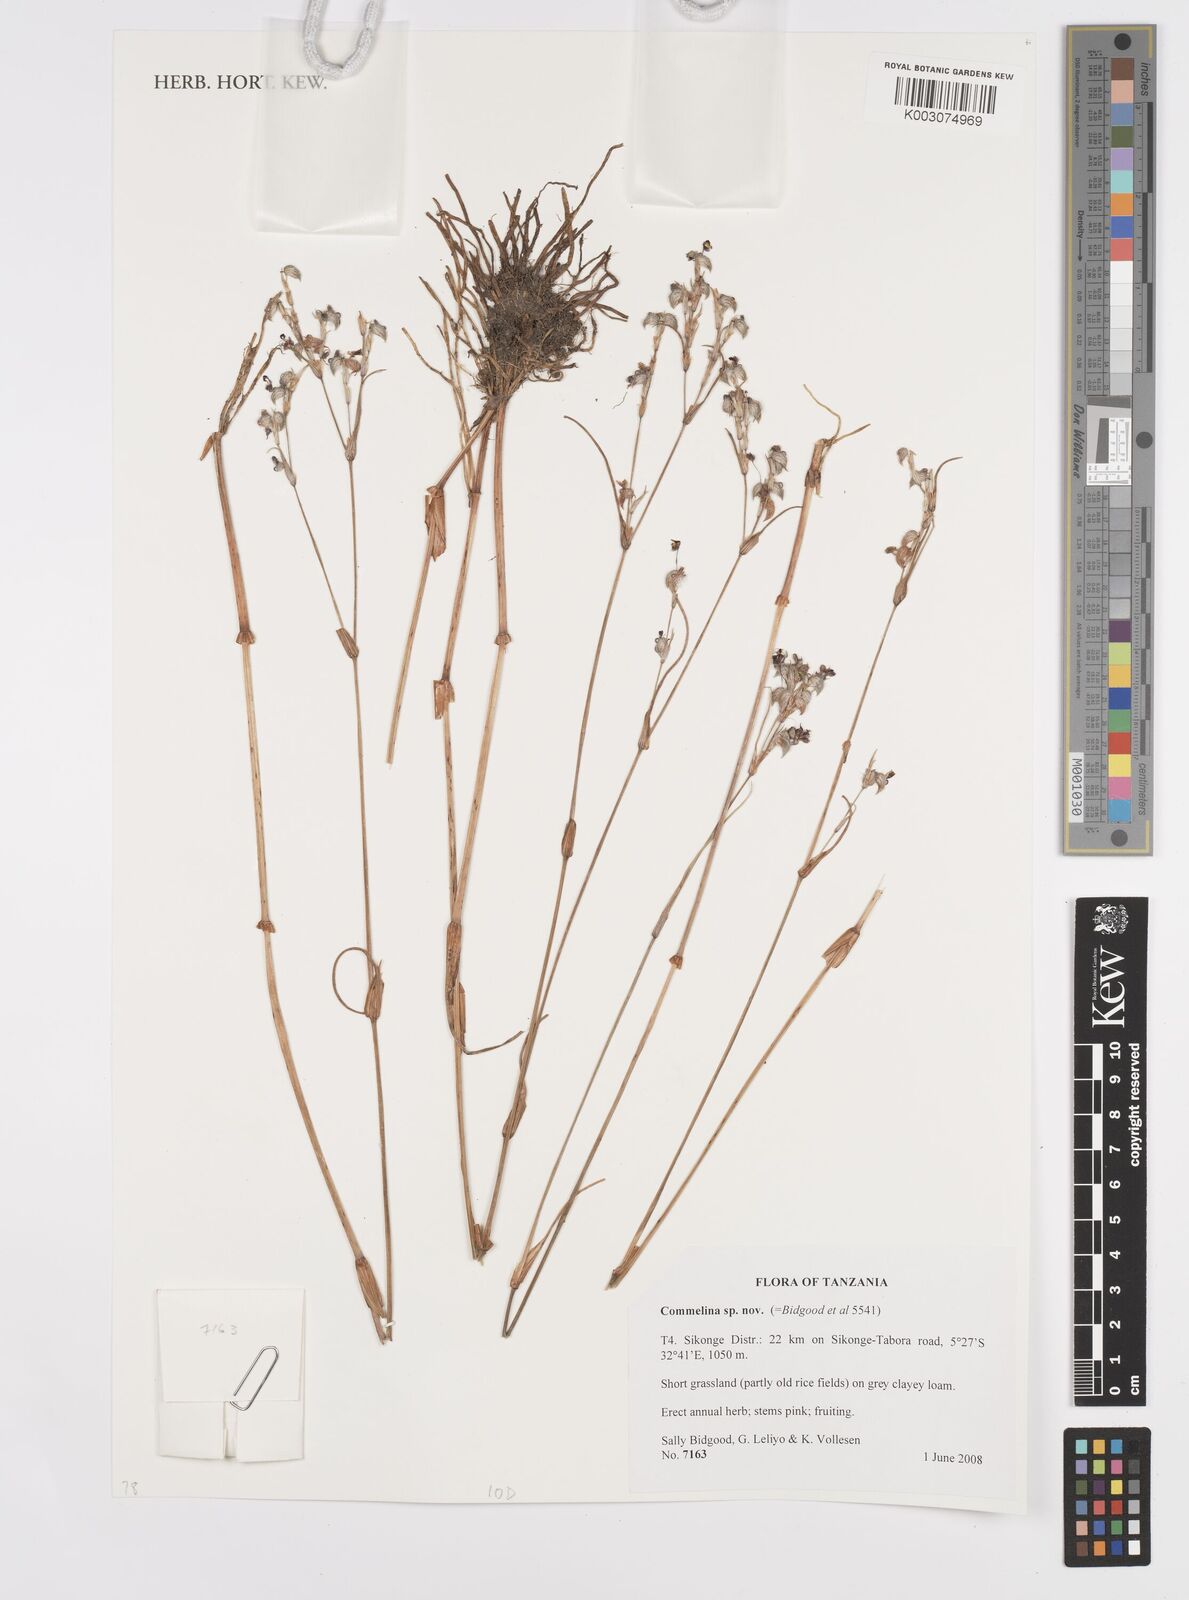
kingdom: Plantae
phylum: Tracheophyta
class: Liliopsida
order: Commelinales
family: Commelinaceae
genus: Commelina
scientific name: Commelina
